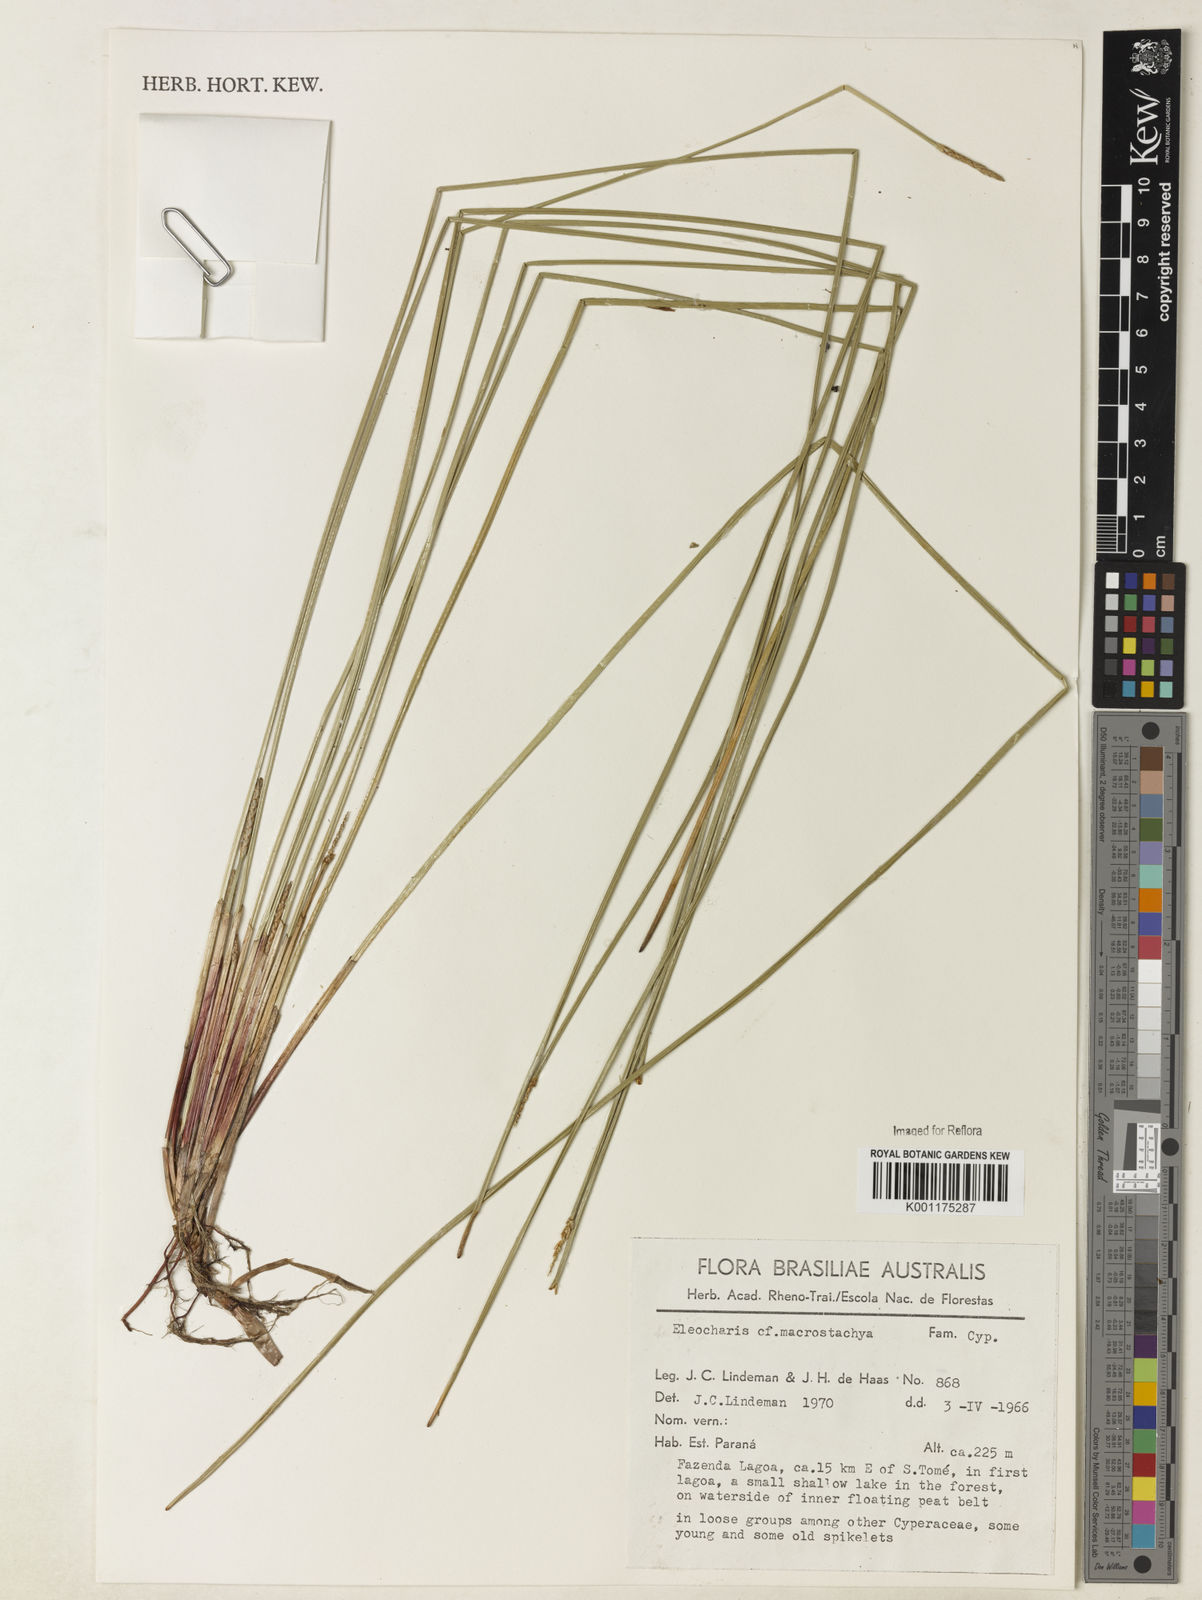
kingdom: Plantae
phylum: Tracheophyta
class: Liliopsida
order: Poales
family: Cyperaceae
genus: Eleocharis
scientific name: Eleocharis macrostachya
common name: Pale spikerush
